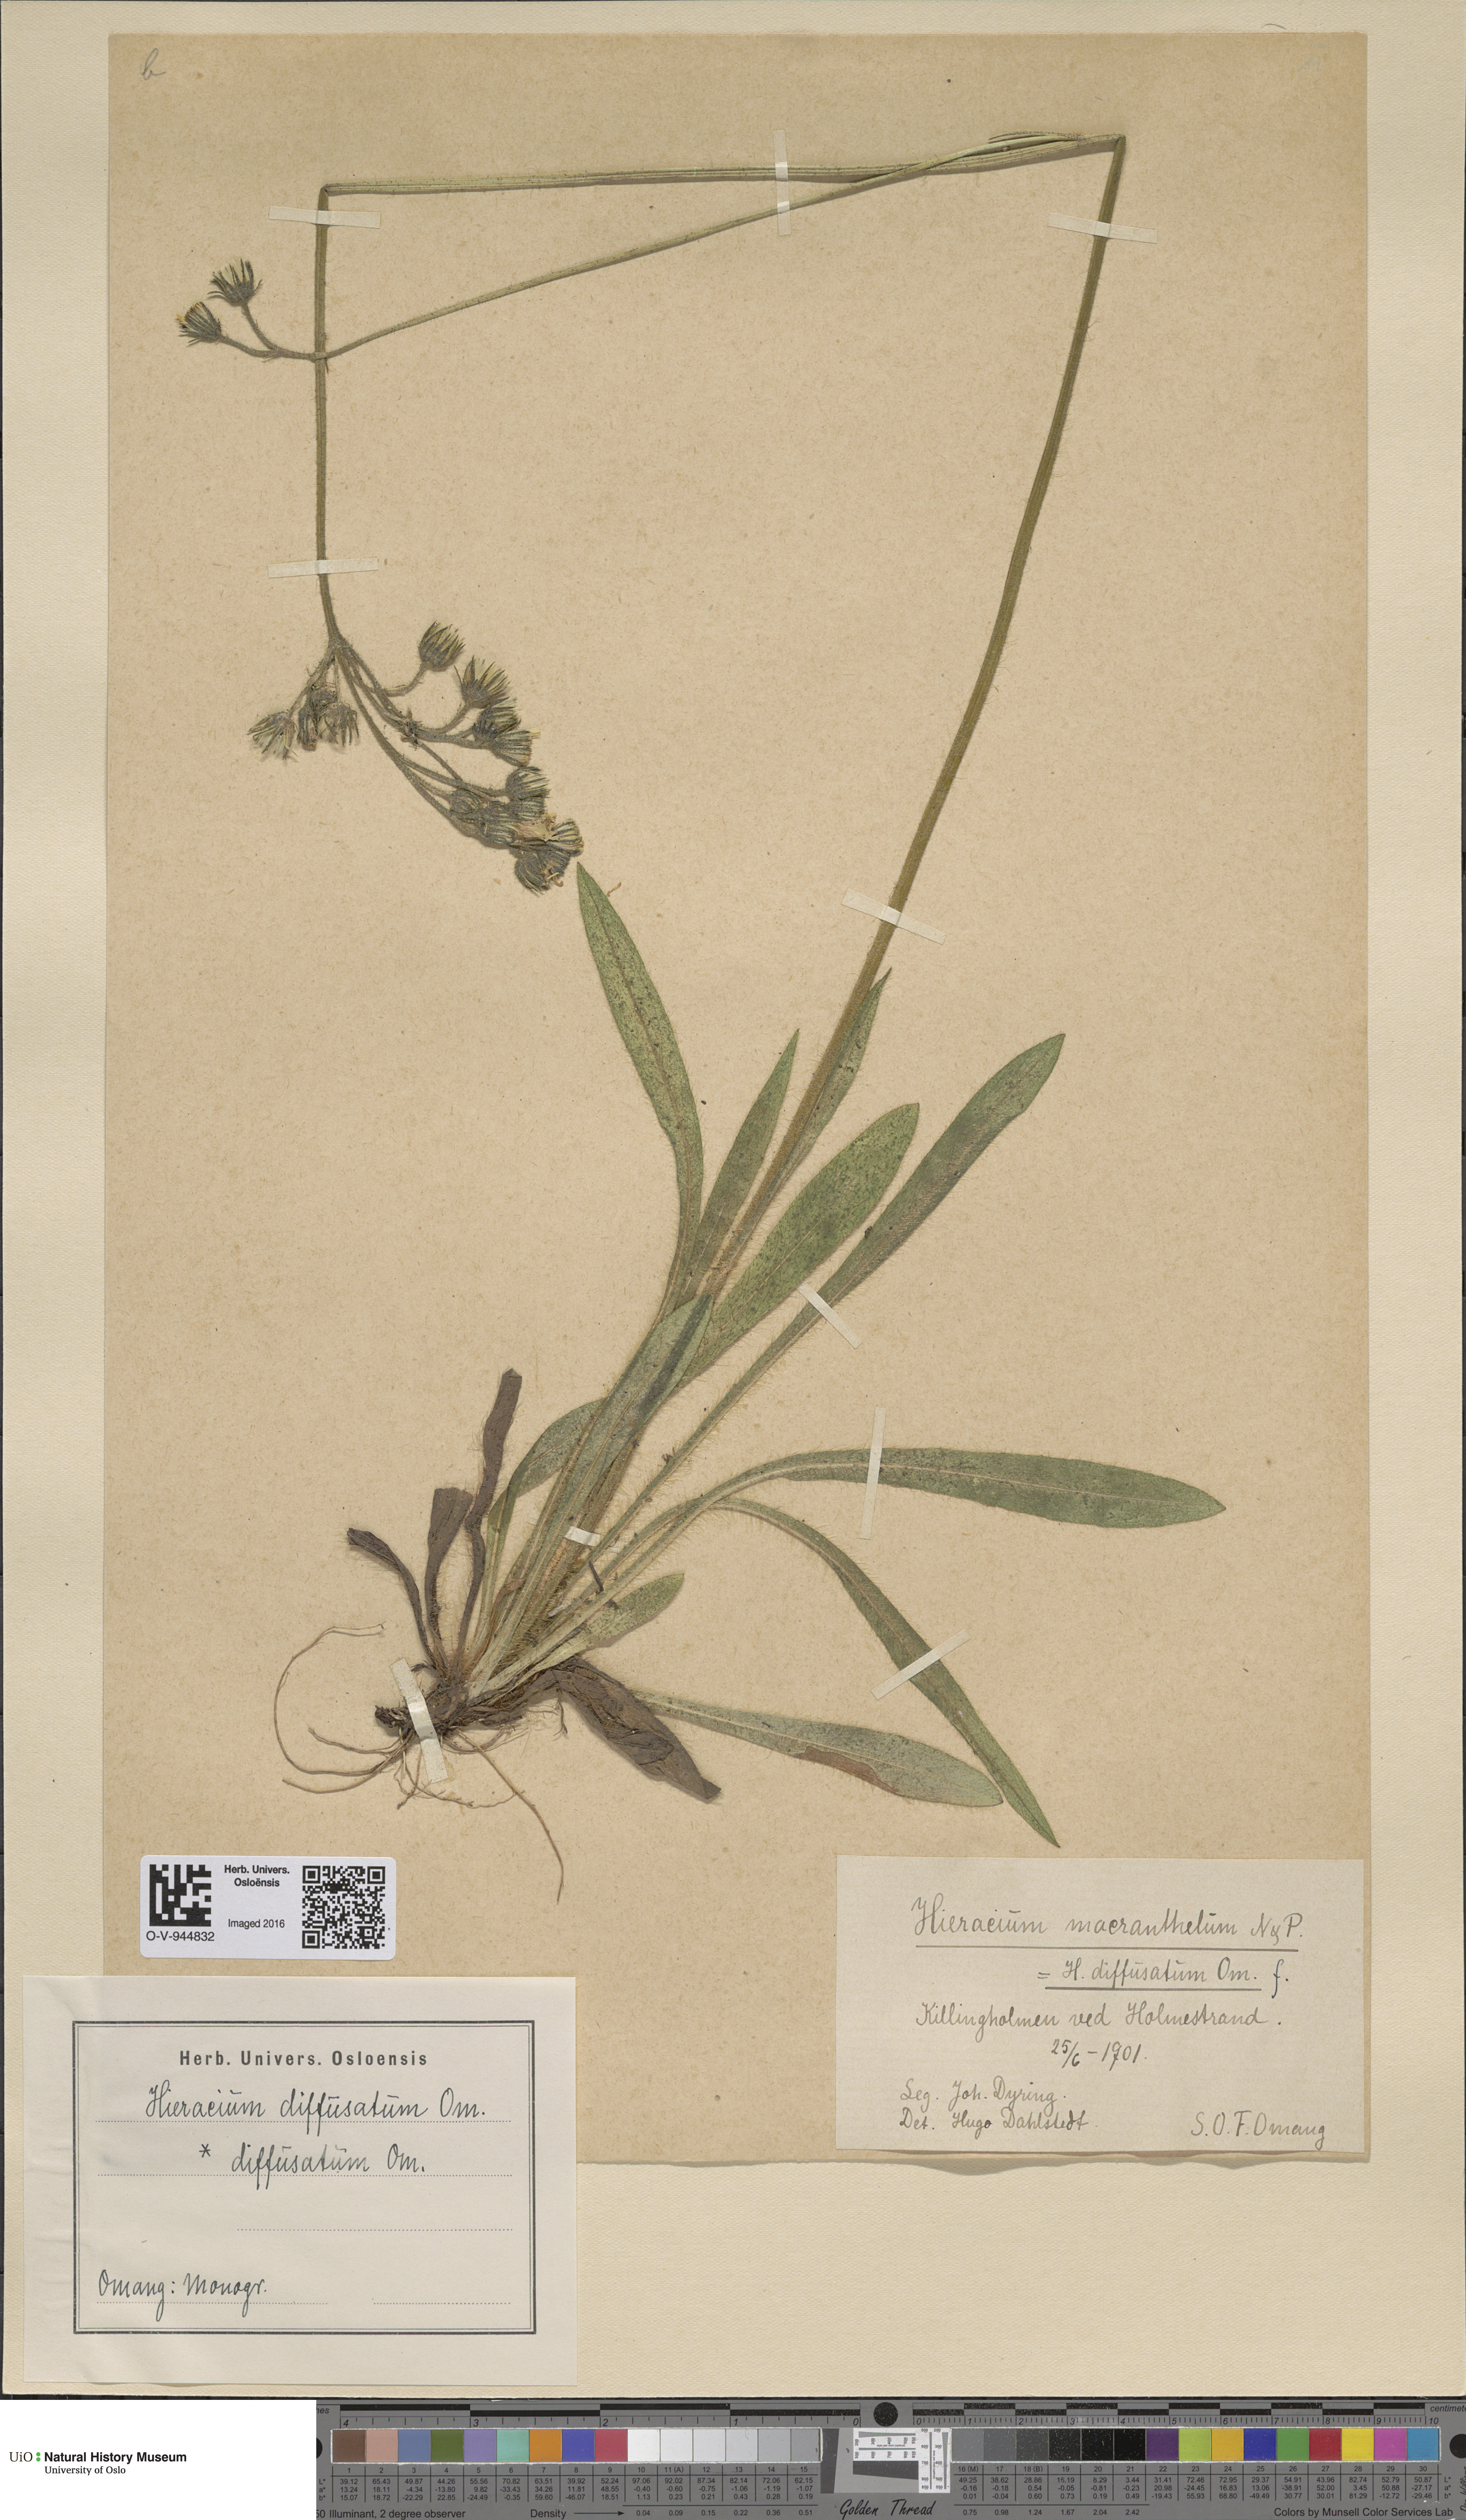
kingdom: Plantae
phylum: Tracheophyta
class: Magnoliopsida
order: Asterales
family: Asteraceae
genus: Pilosella
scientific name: Pilosella macranthela
